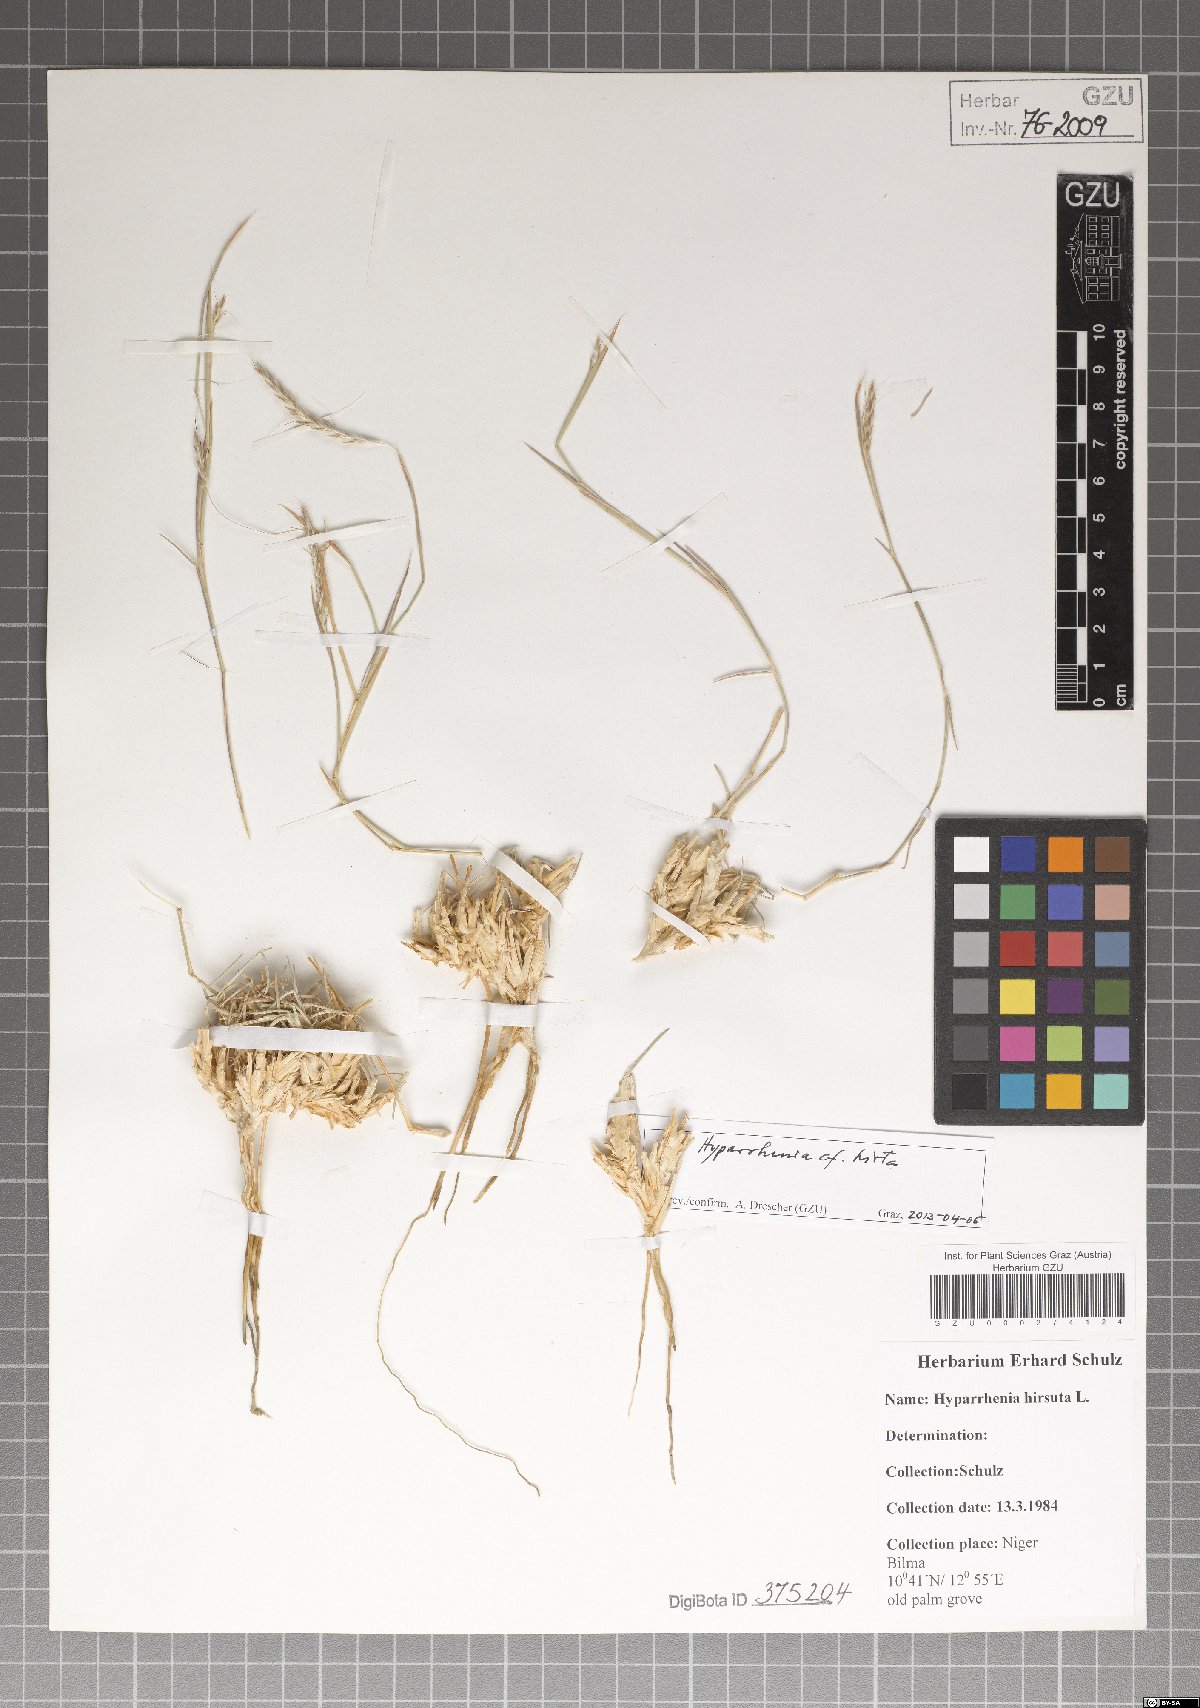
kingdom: Plantae
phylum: Tracheophyta
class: Liliopsida
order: Poales
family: Poaceae
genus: Hyparrhenia
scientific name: Hyparrhenia hirta
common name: Thatching grass
